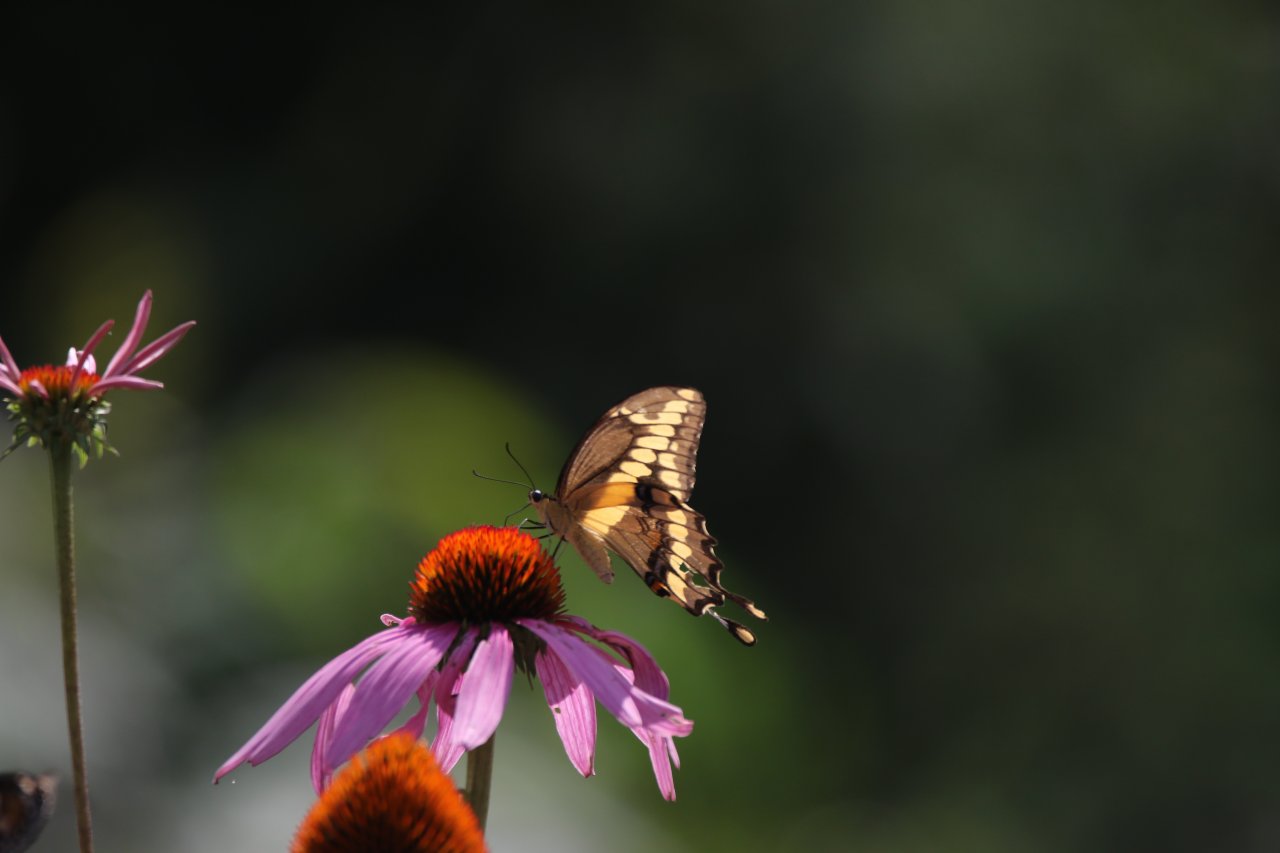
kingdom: Animalia
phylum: Arthropoda
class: Insecta
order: Lepidoptera
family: Papilionidae
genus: Papilio
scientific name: Papilio cresphontes
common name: Eastern Giant Swallowtail
